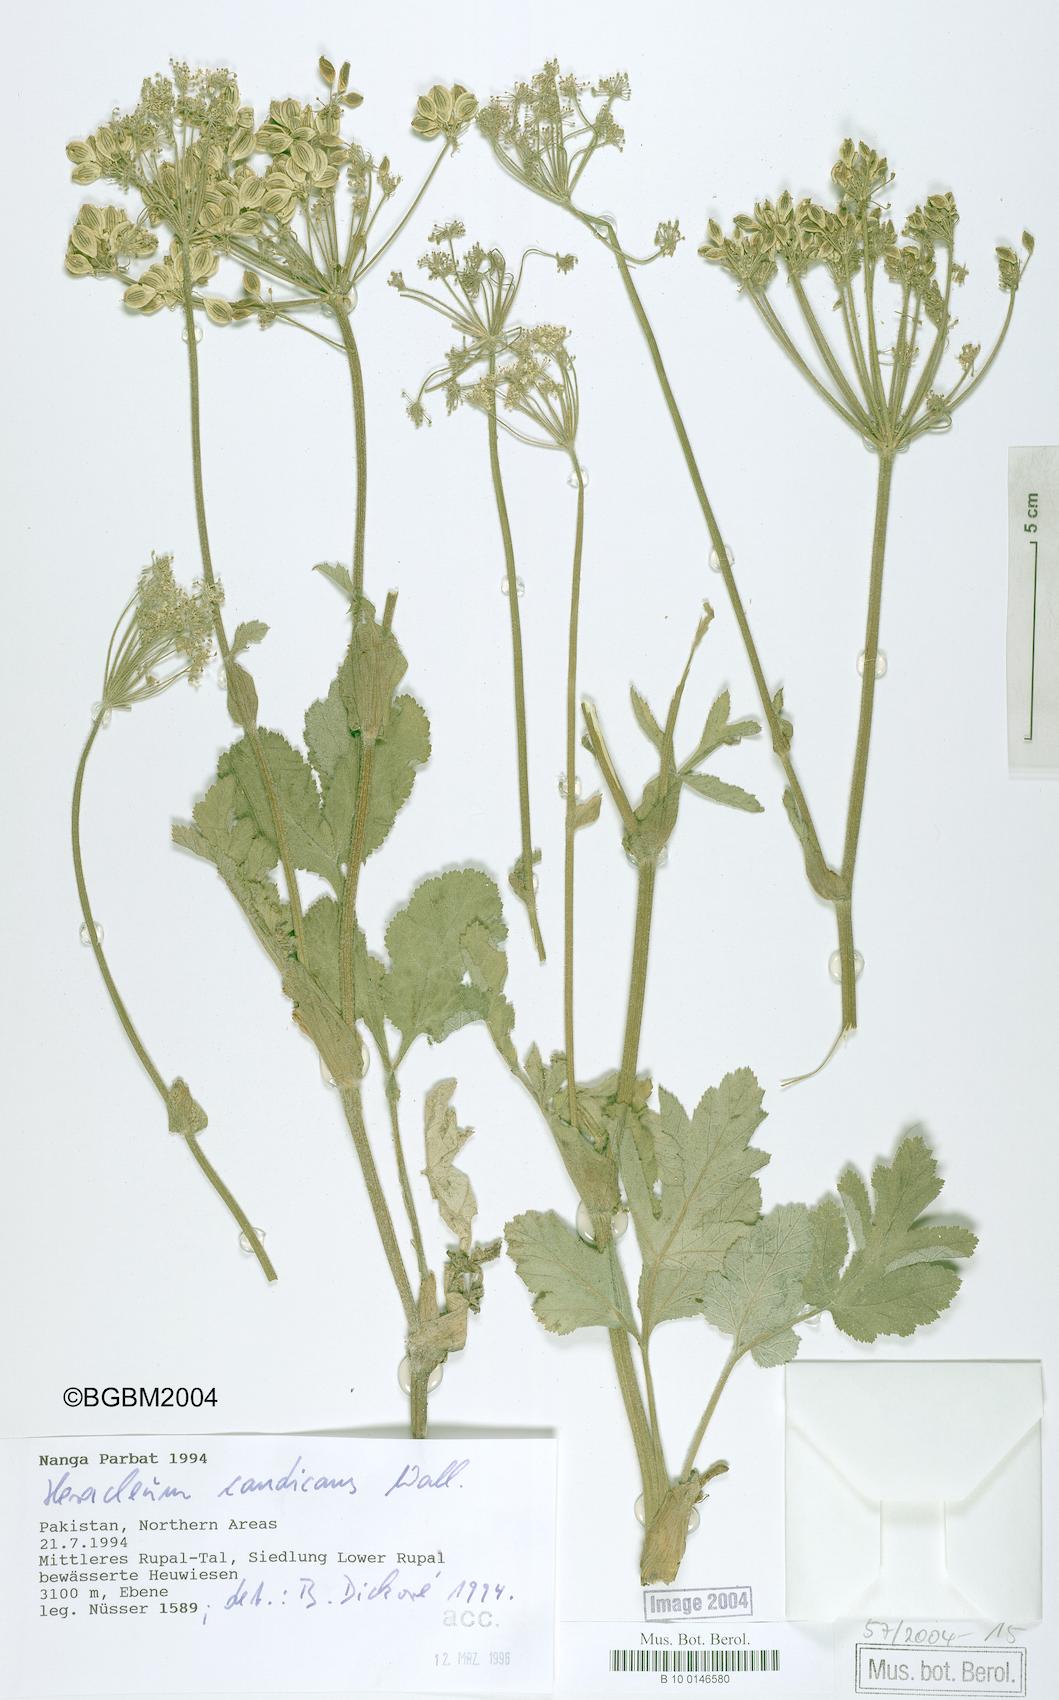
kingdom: Plantae
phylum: Tracheophyta
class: Magnoliopsida
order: Apiales
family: Apiaceae
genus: Tetrataenium
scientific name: Tetrataenium candicans
